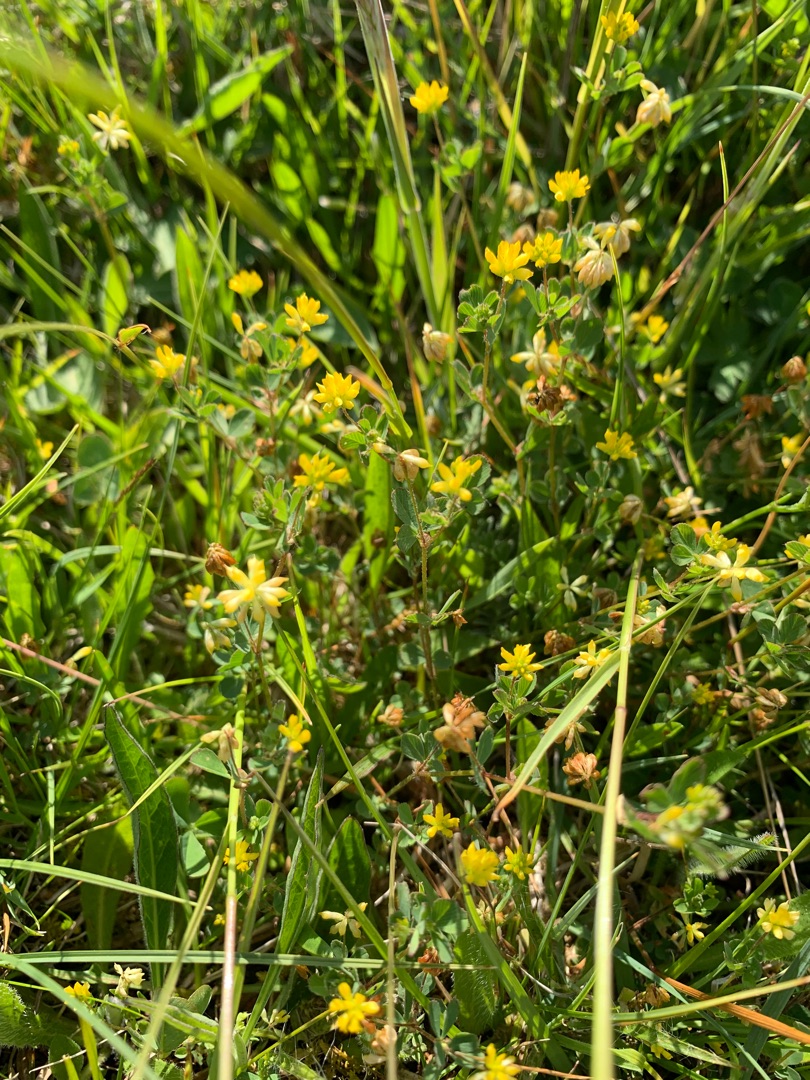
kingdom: Plantae
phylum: Tracheophyta
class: Magnoliopsida
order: Fabales
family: Fabaceae
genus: Trifolium
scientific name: Trifolium dubium
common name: Fin kløver
